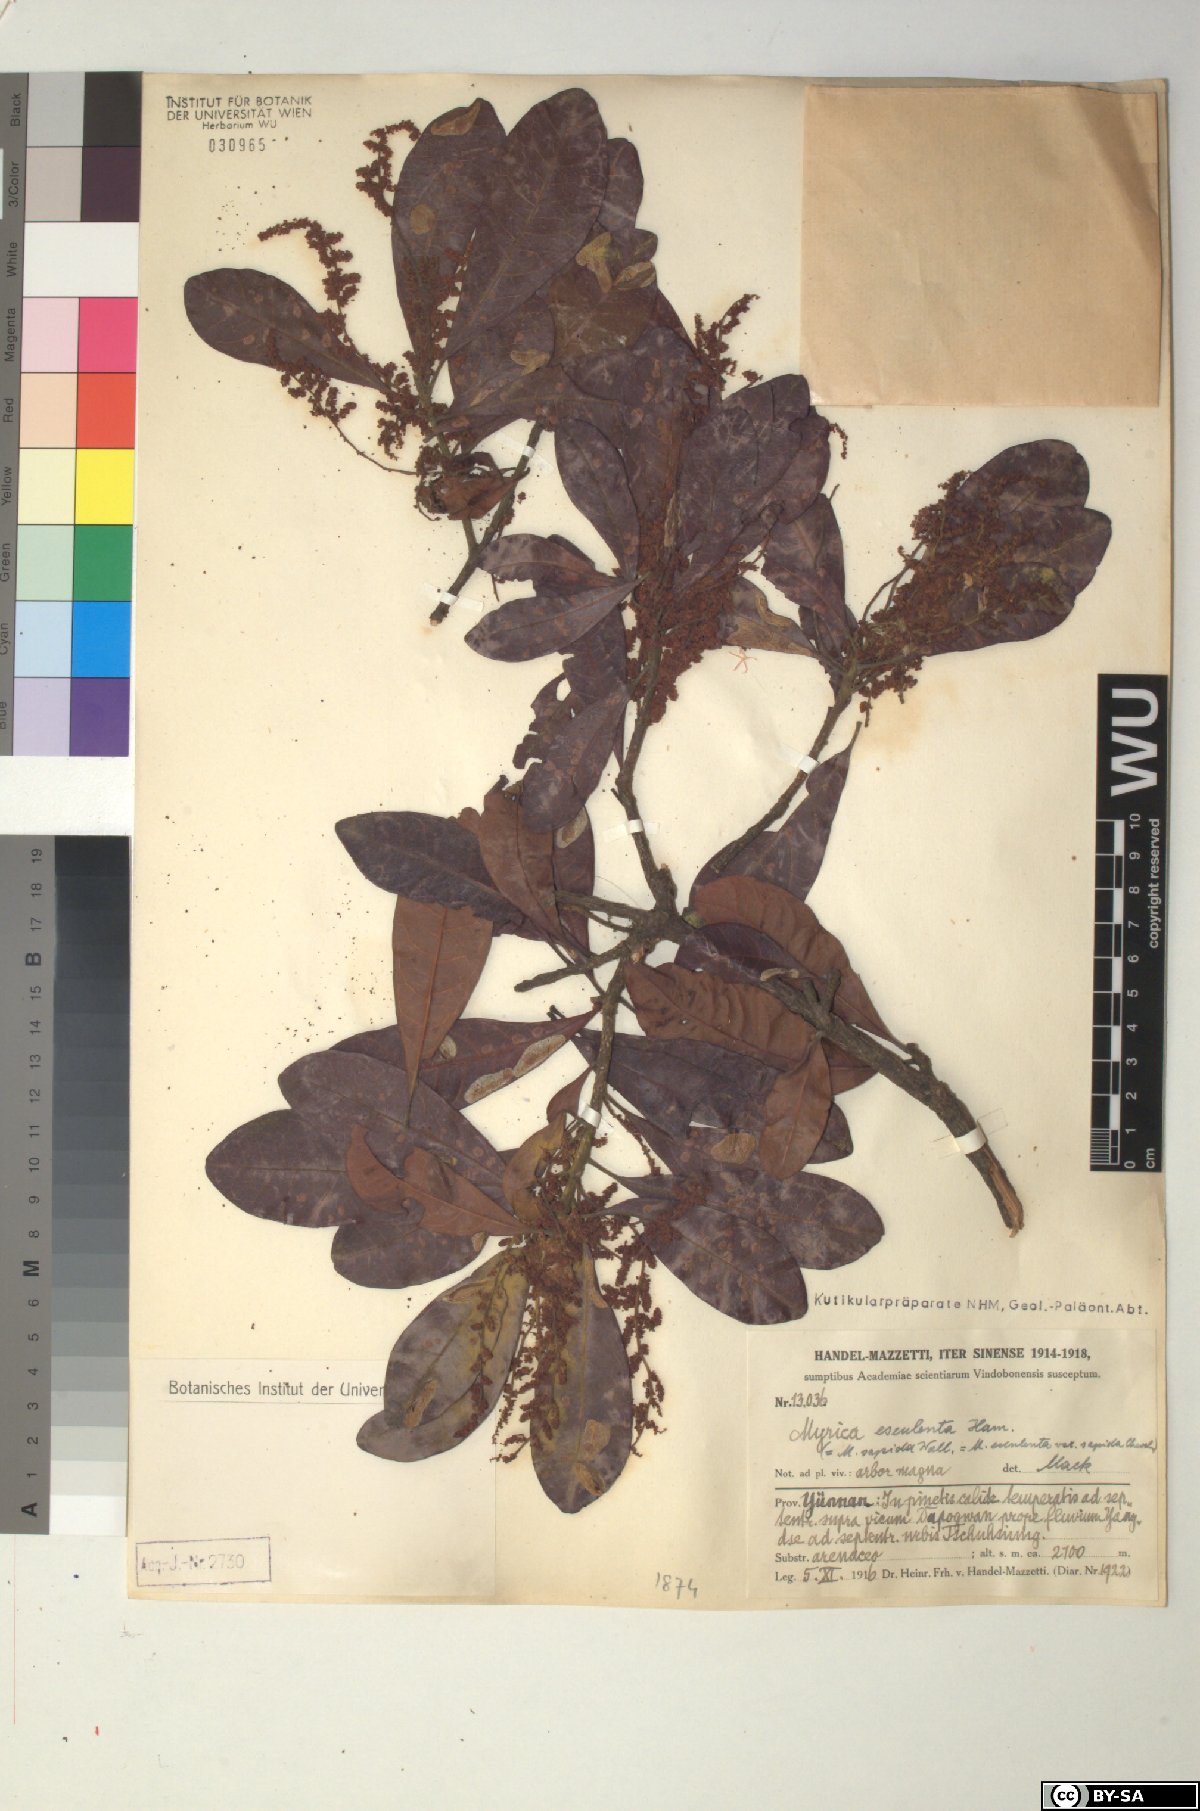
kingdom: Plantae
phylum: Tracheophyta
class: Magnoliopsida
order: Fagales
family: Myricaceae
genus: Morella
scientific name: Morella esculenta
